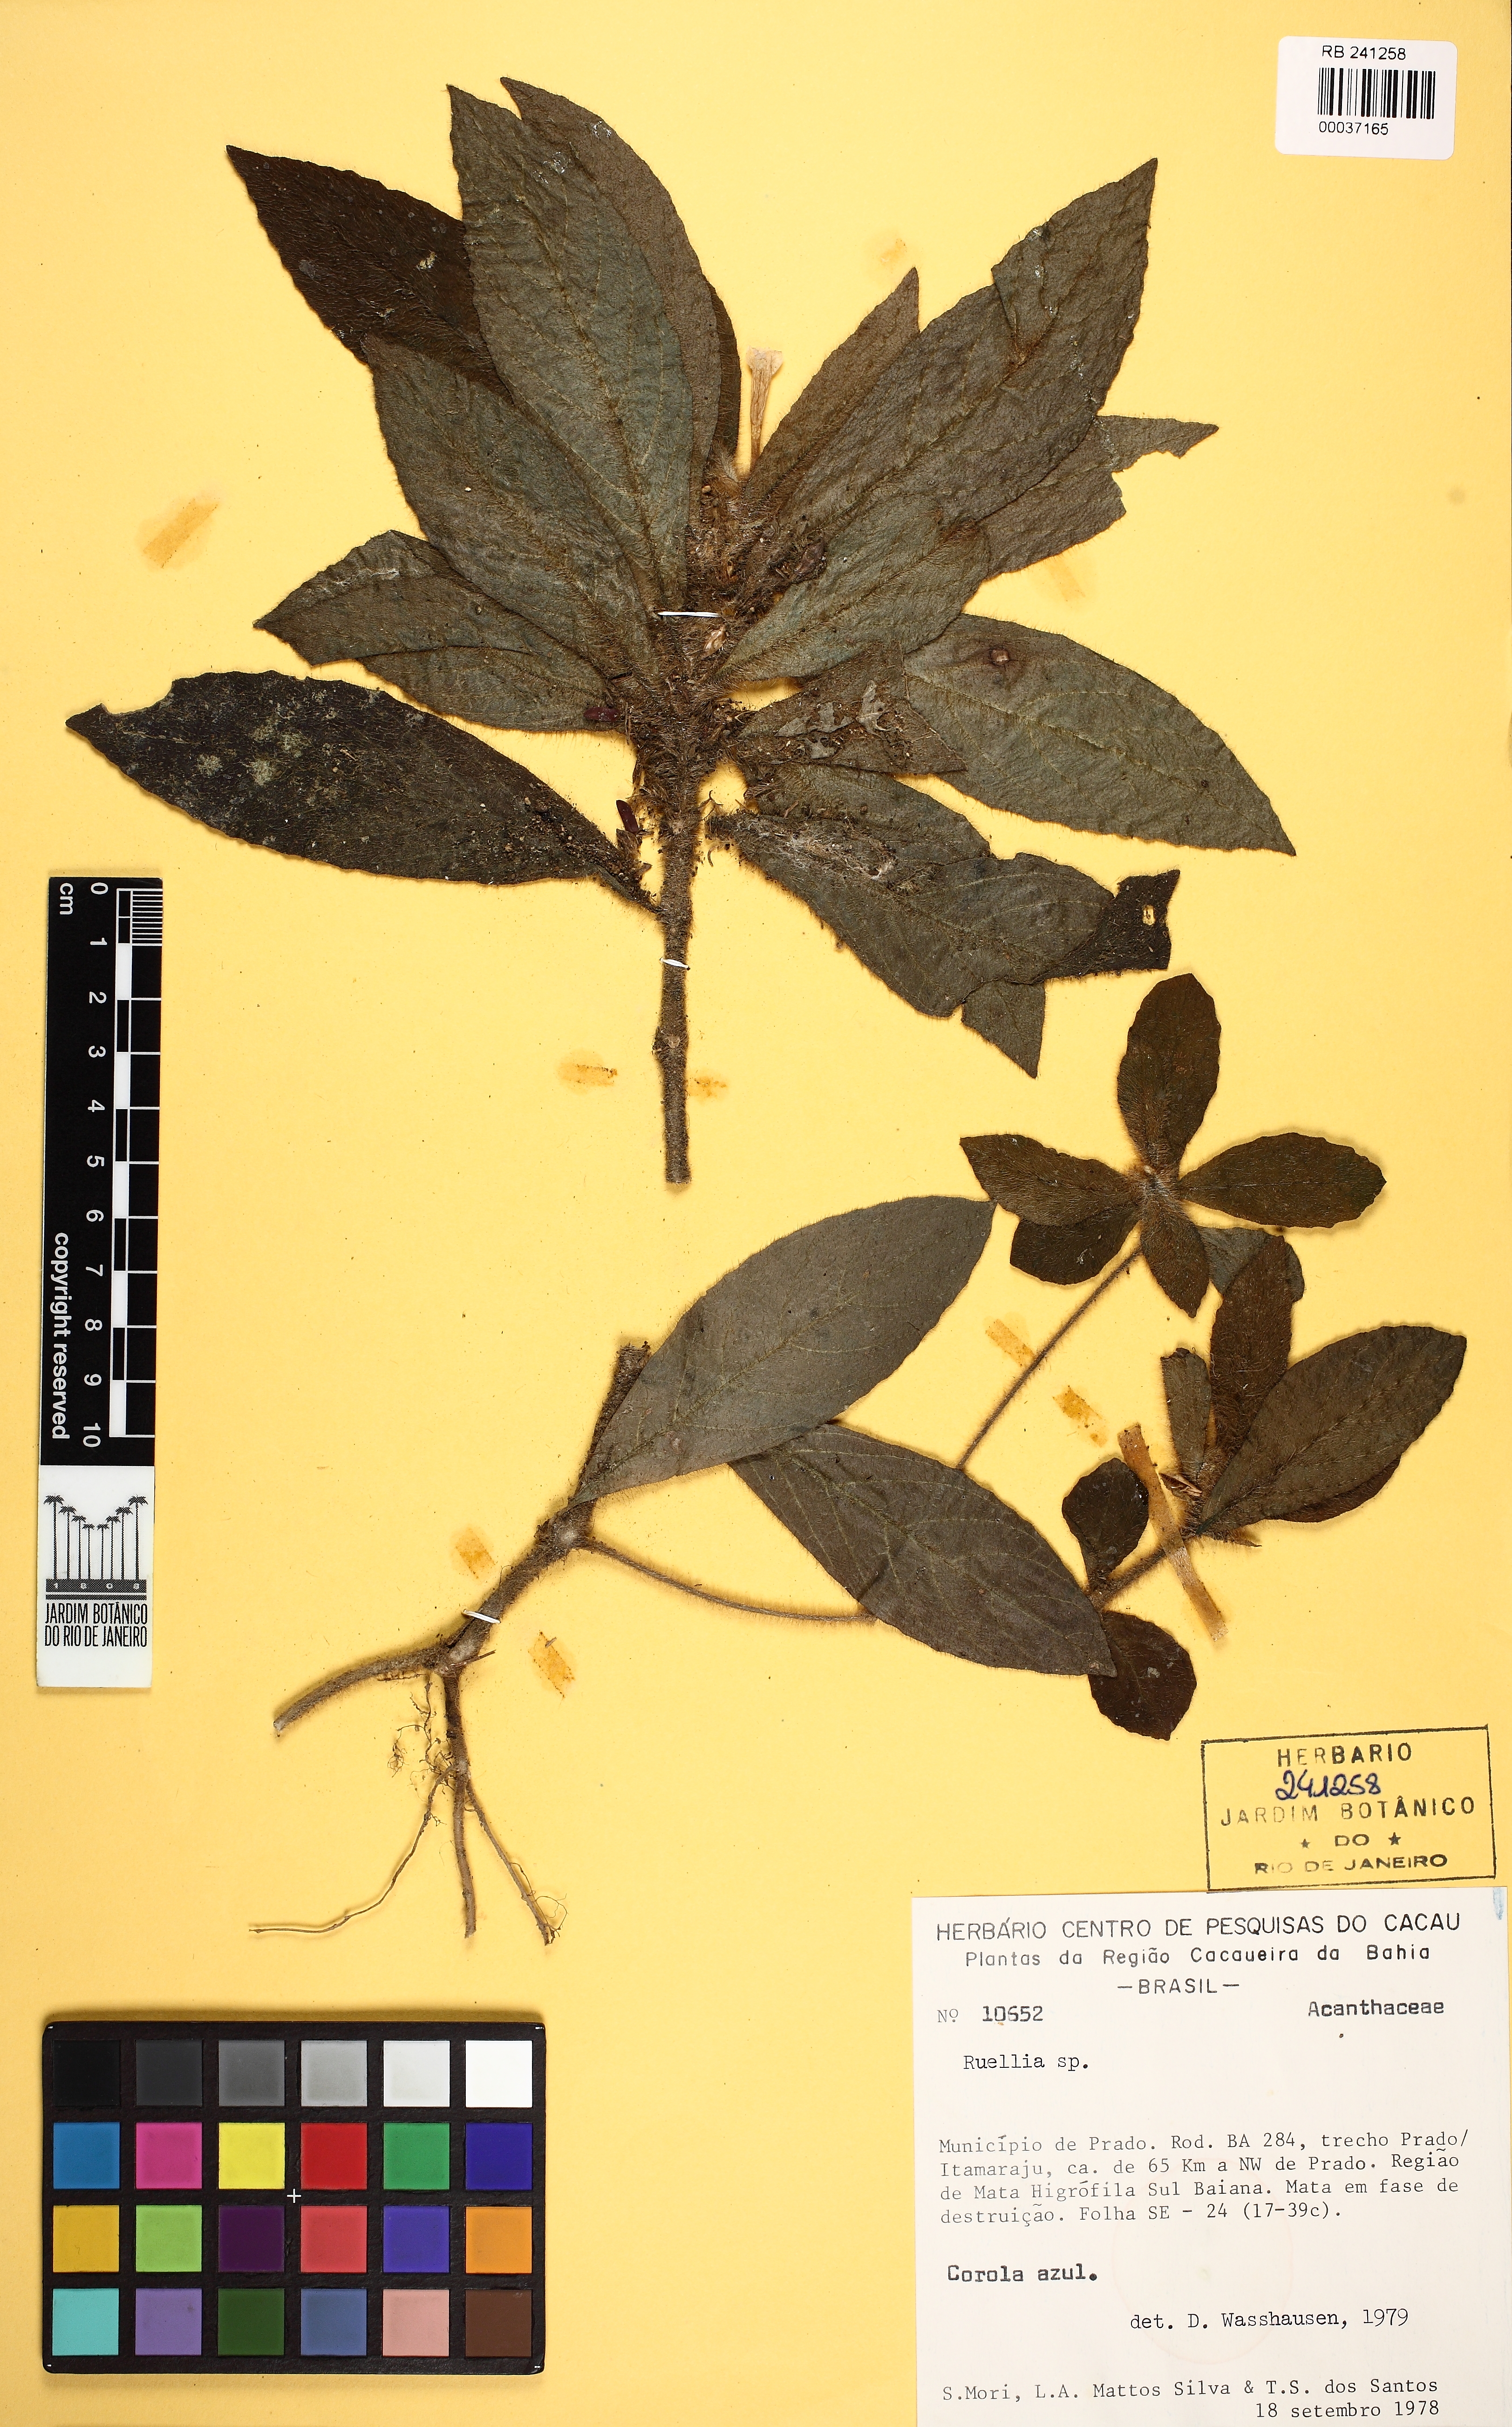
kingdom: Plantae
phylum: Tracheophyta
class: Magnoliopsida
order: Lamiales
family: Acanthaceae
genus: Ruellia
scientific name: Ruellia
